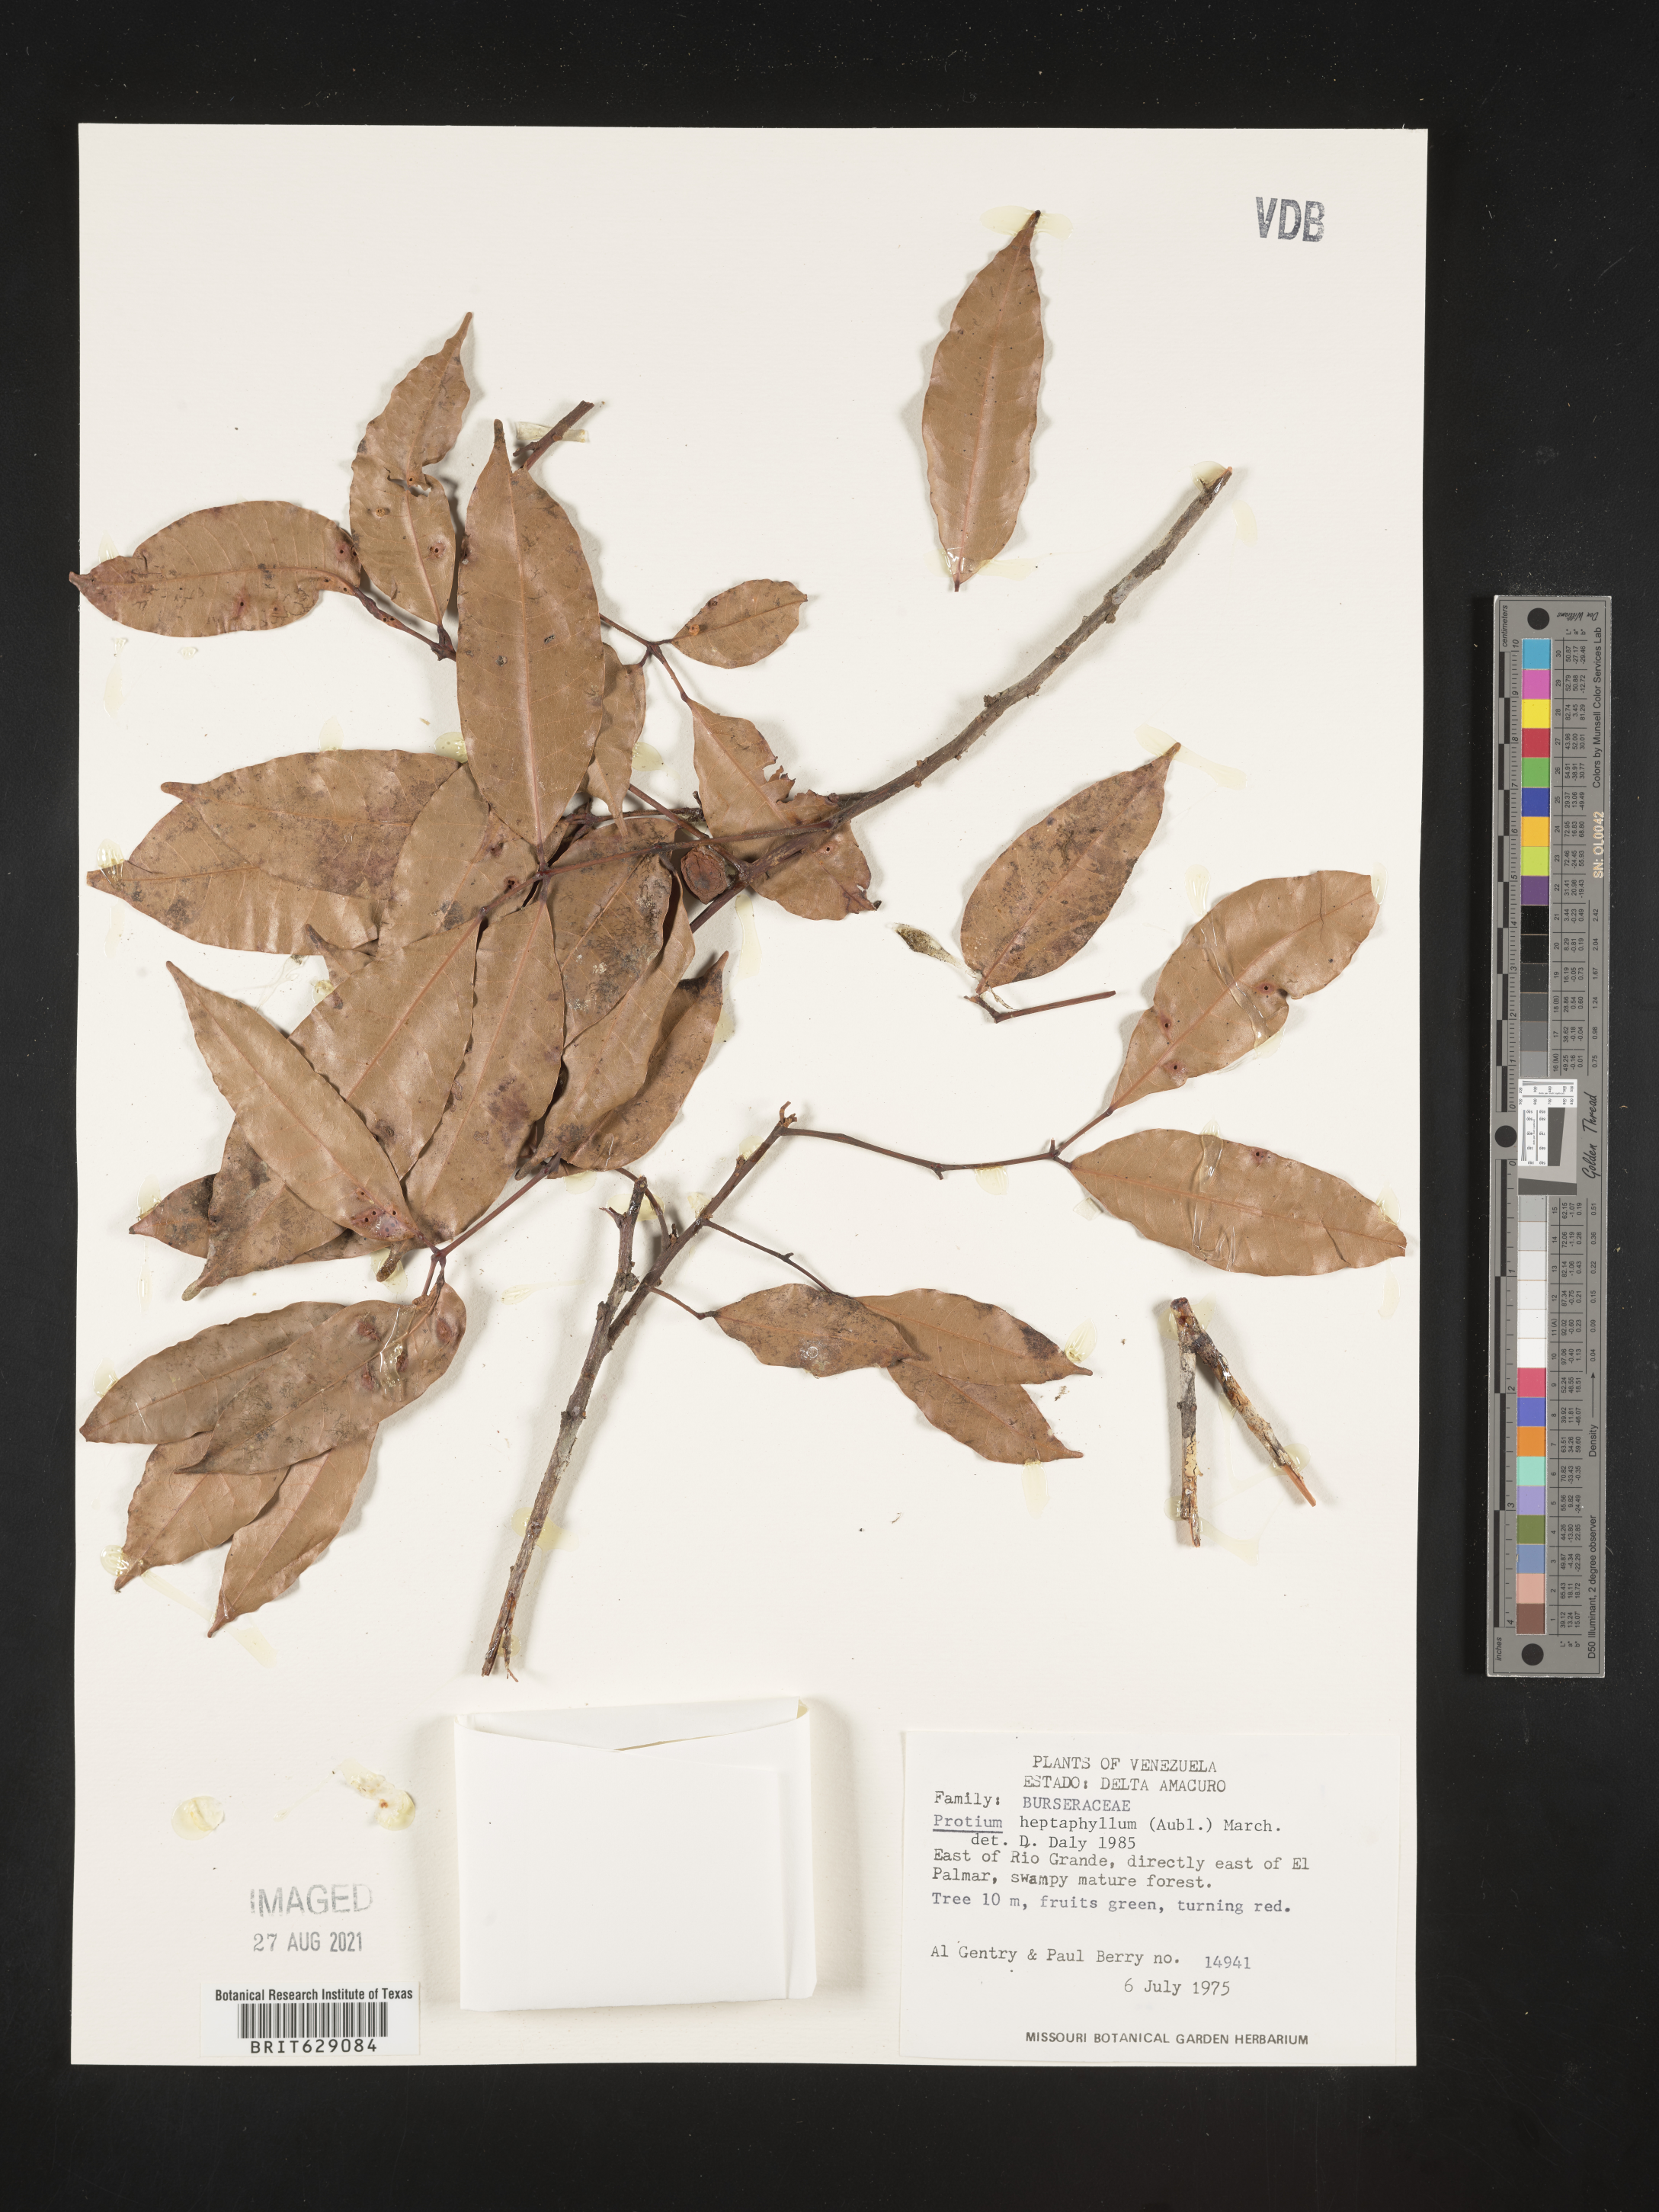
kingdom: Plantae
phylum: Tracheophyta
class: Magnoliopsida
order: Sapindales
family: Burseraceae
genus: Protium
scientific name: Protium heptaphyllum
